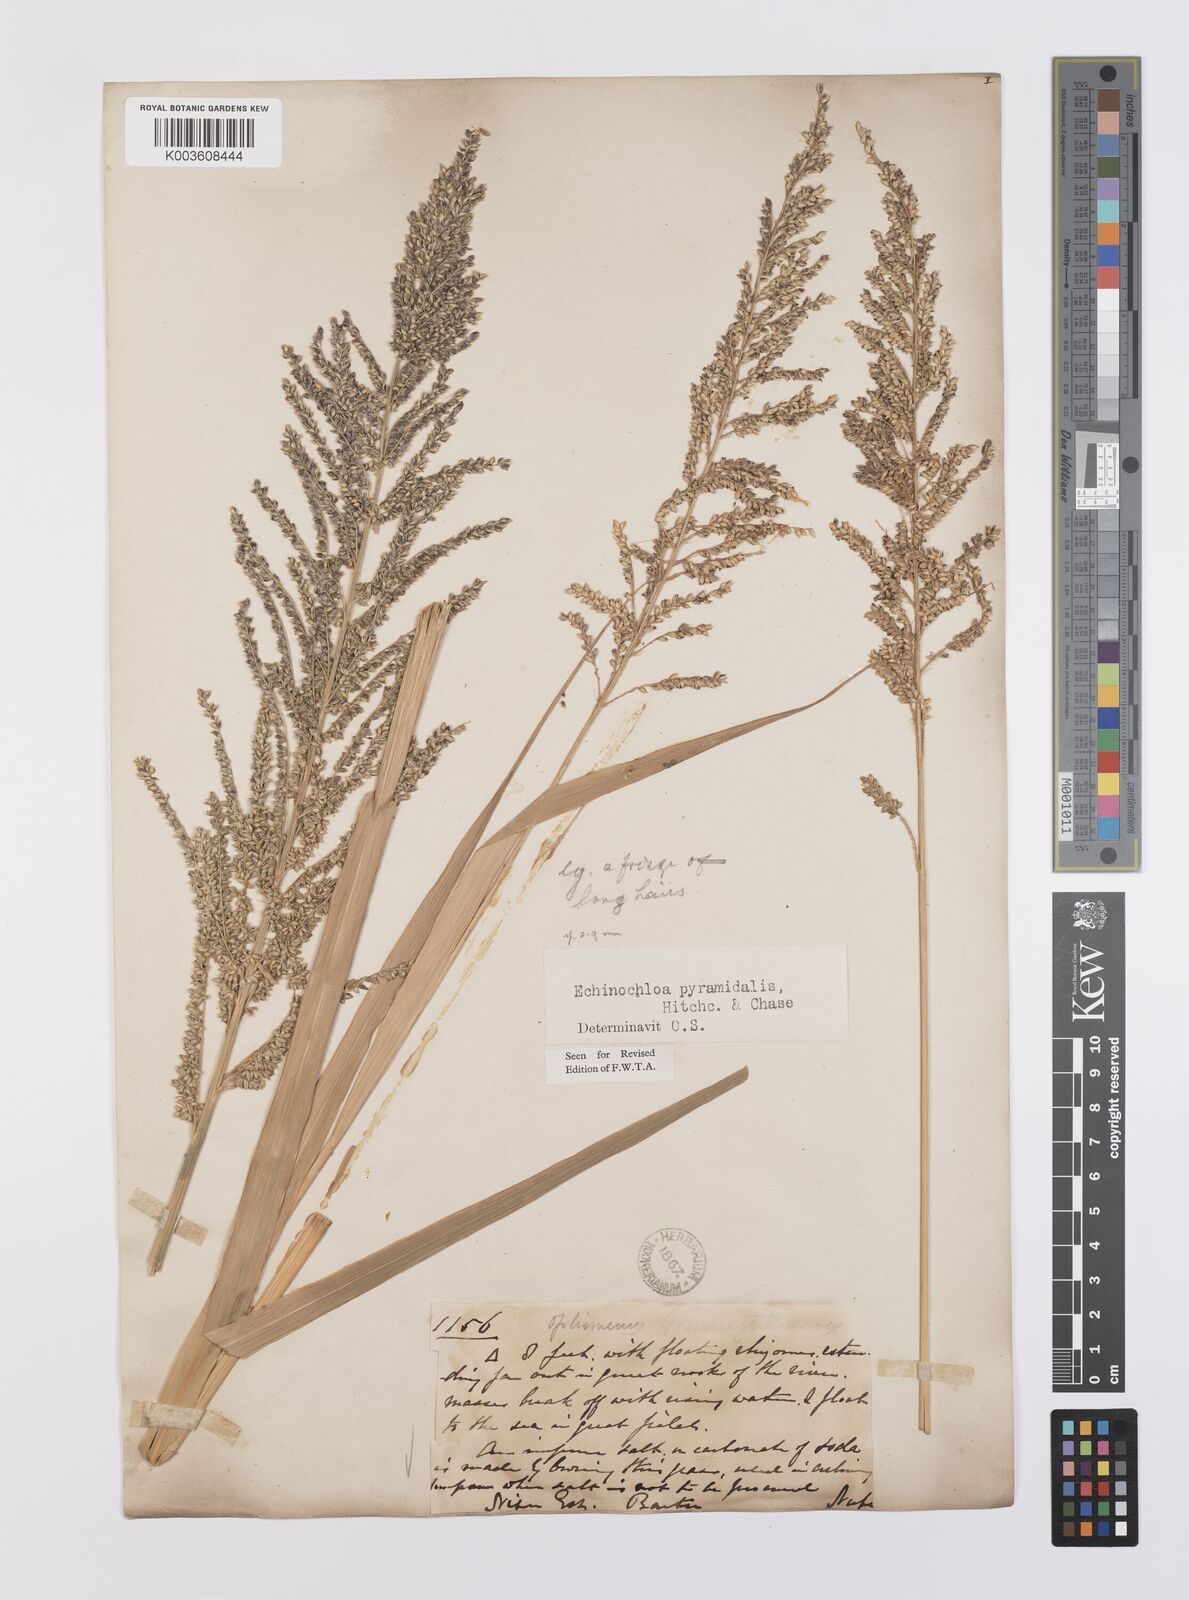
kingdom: Plantae
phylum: Tracheophyta
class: Liliopsida
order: Poales
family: Poaceae
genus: Echinochloa
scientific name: Echinochloa pyramidalis
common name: Antelope grass
